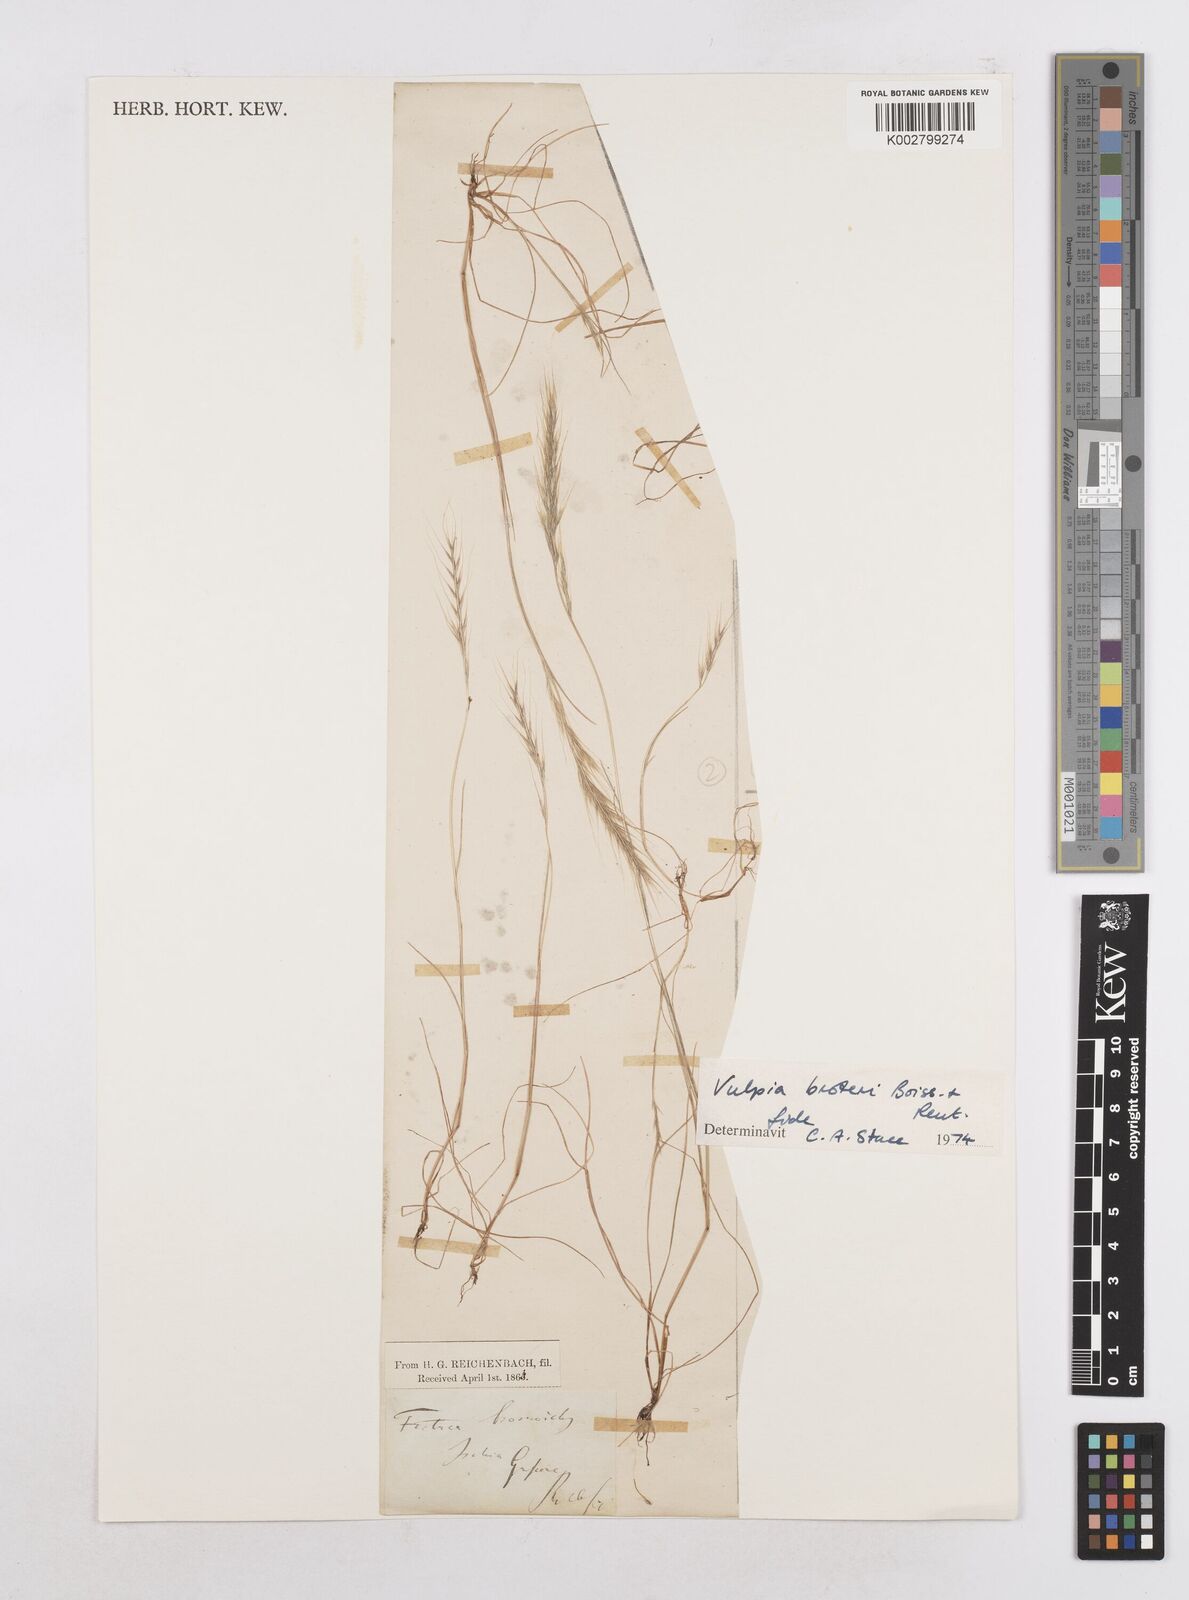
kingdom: Plantae
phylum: Tracheophyta
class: Liliopsida
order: Poales
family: Poaceae
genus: Festuca
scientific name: Festuca muralis
